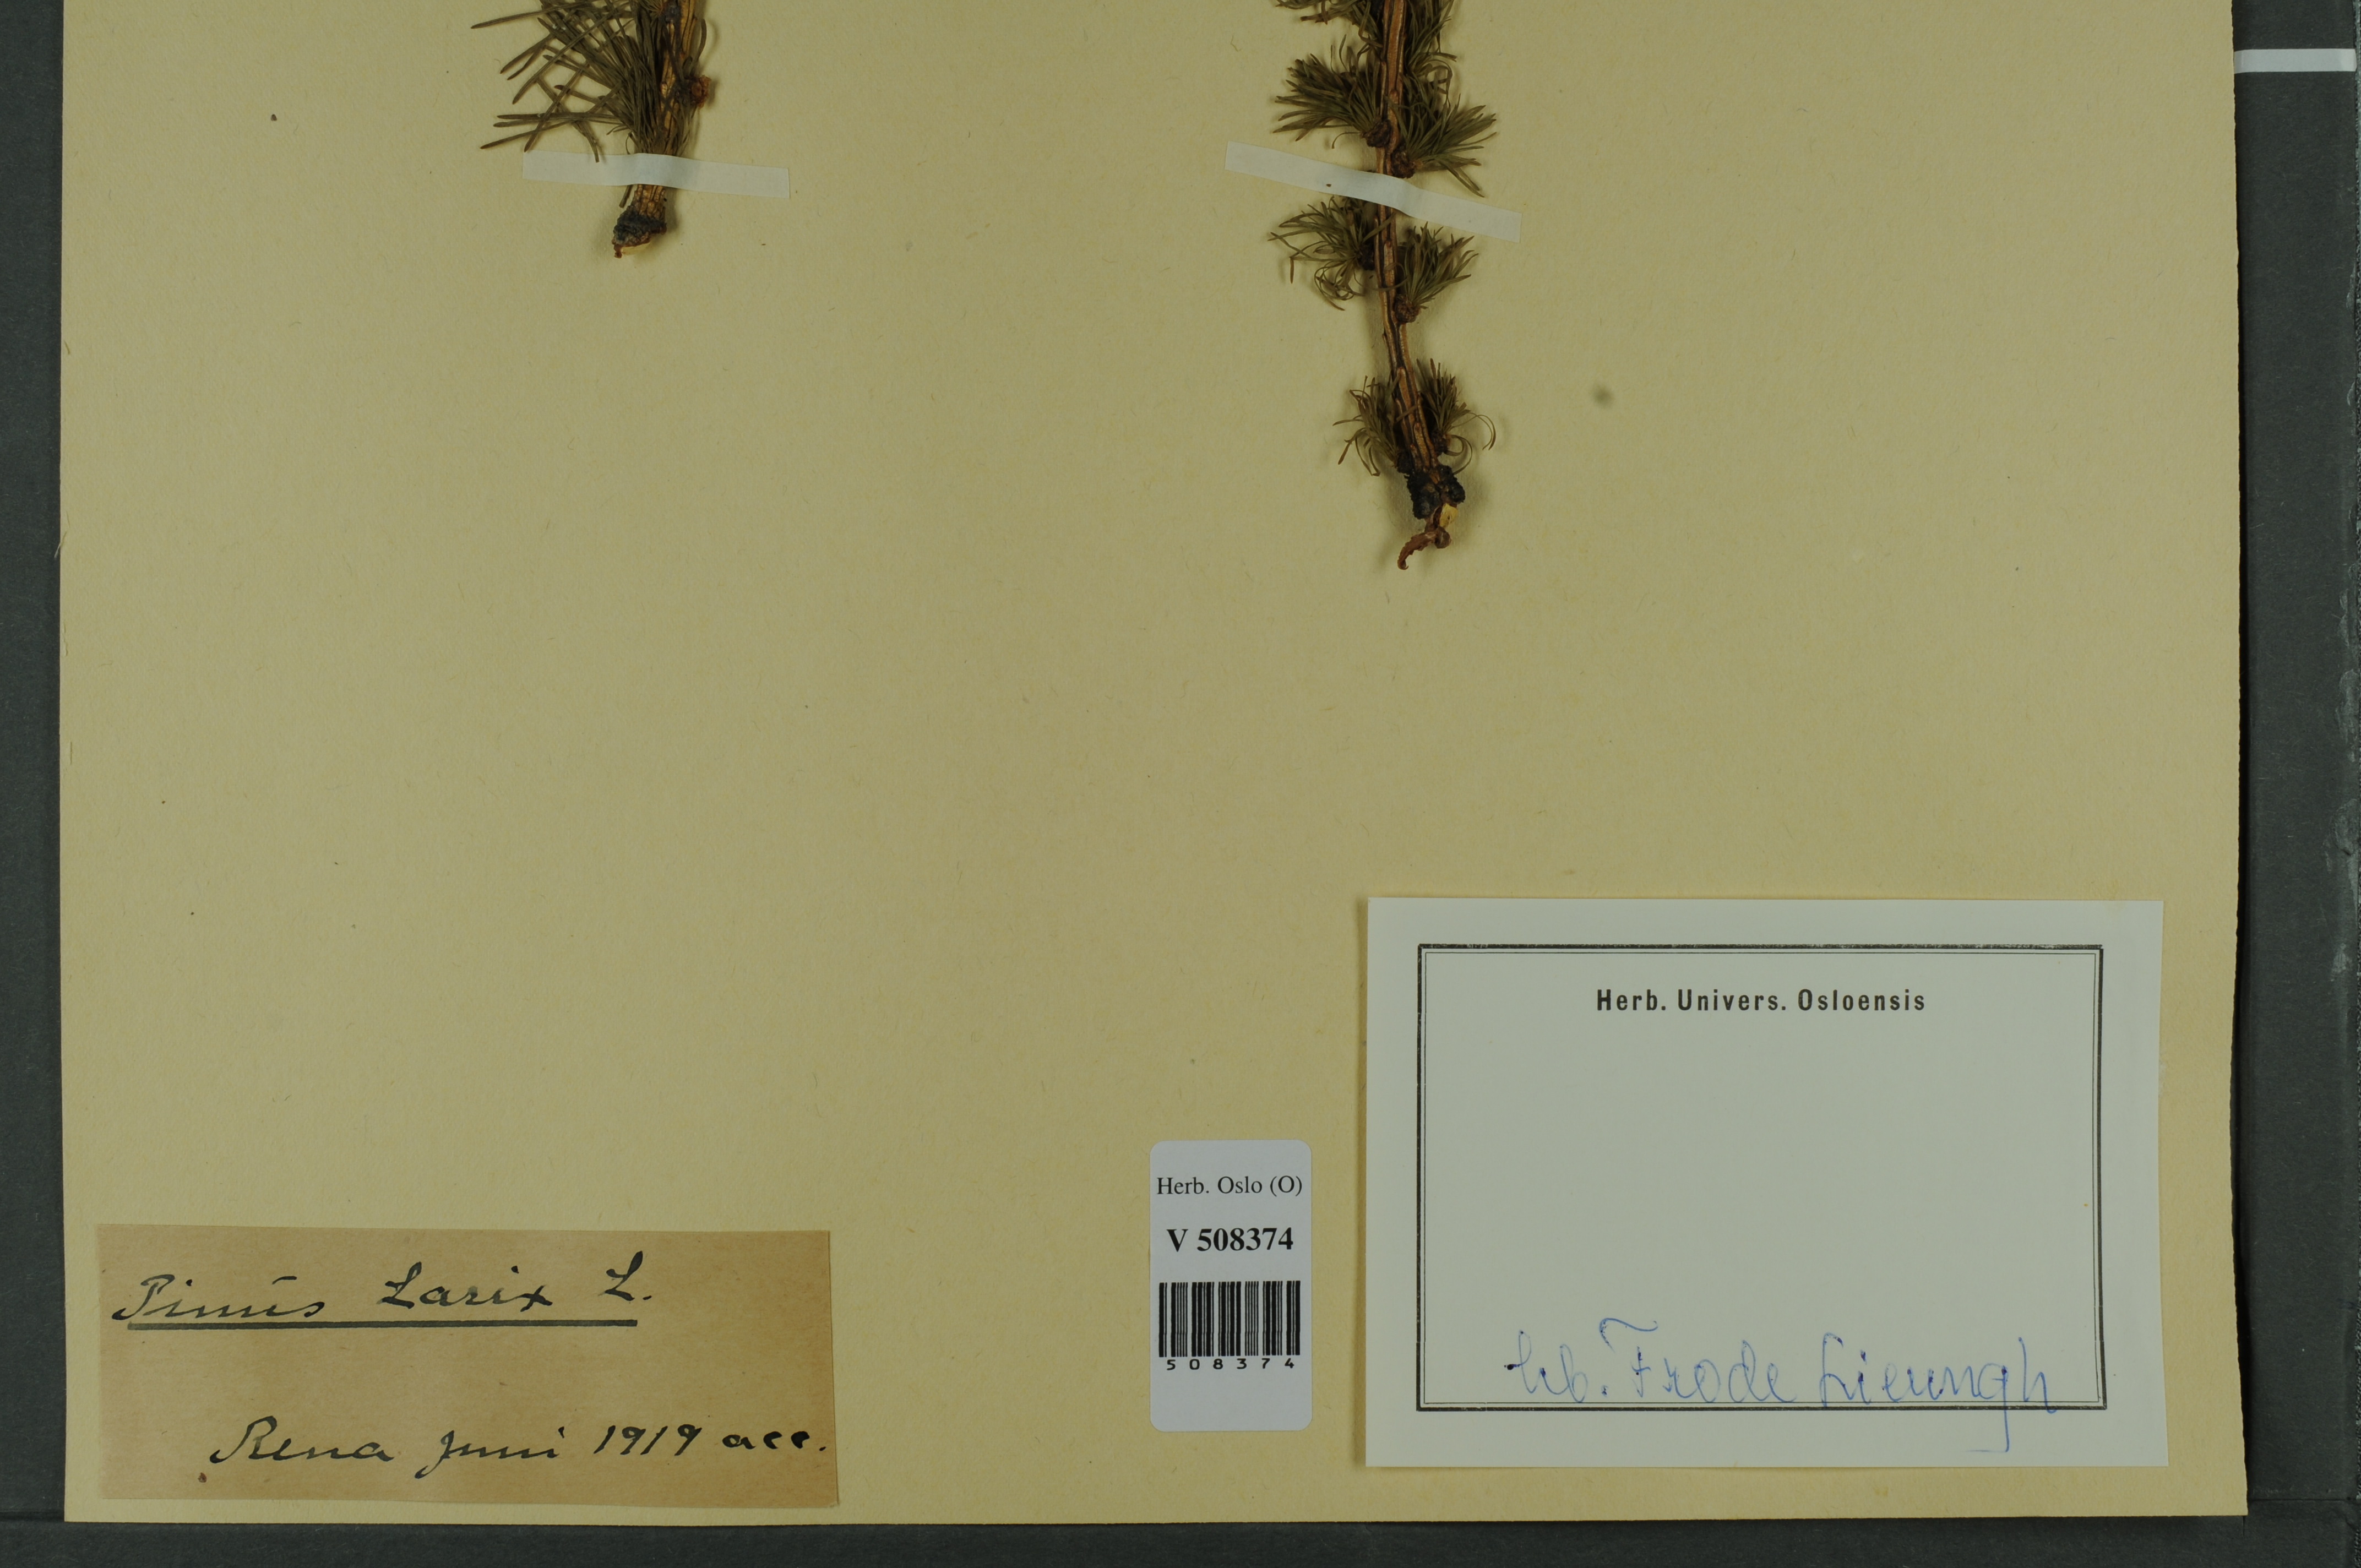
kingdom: Plantae
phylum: Tracheophyta
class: Pinopsida
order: Pinales
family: Pinaceae
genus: Larix
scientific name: Larix decidua
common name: European larch
